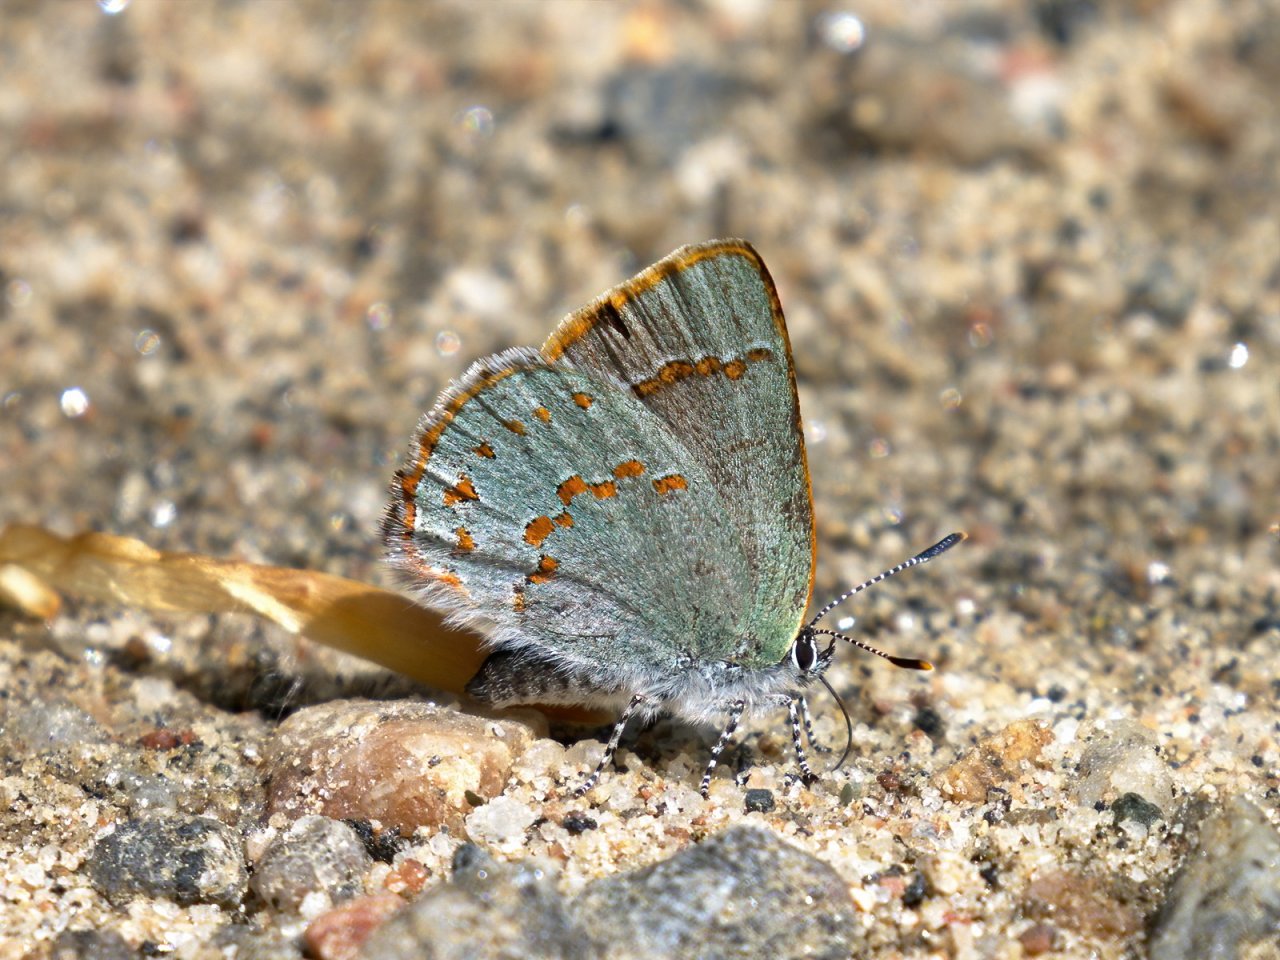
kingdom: Animalia
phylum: Arthropoda
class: Insecta
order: Lepidoptera
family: Lycaenidae
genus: Erora
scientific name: Erora laeta
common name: Early Hairstreak
